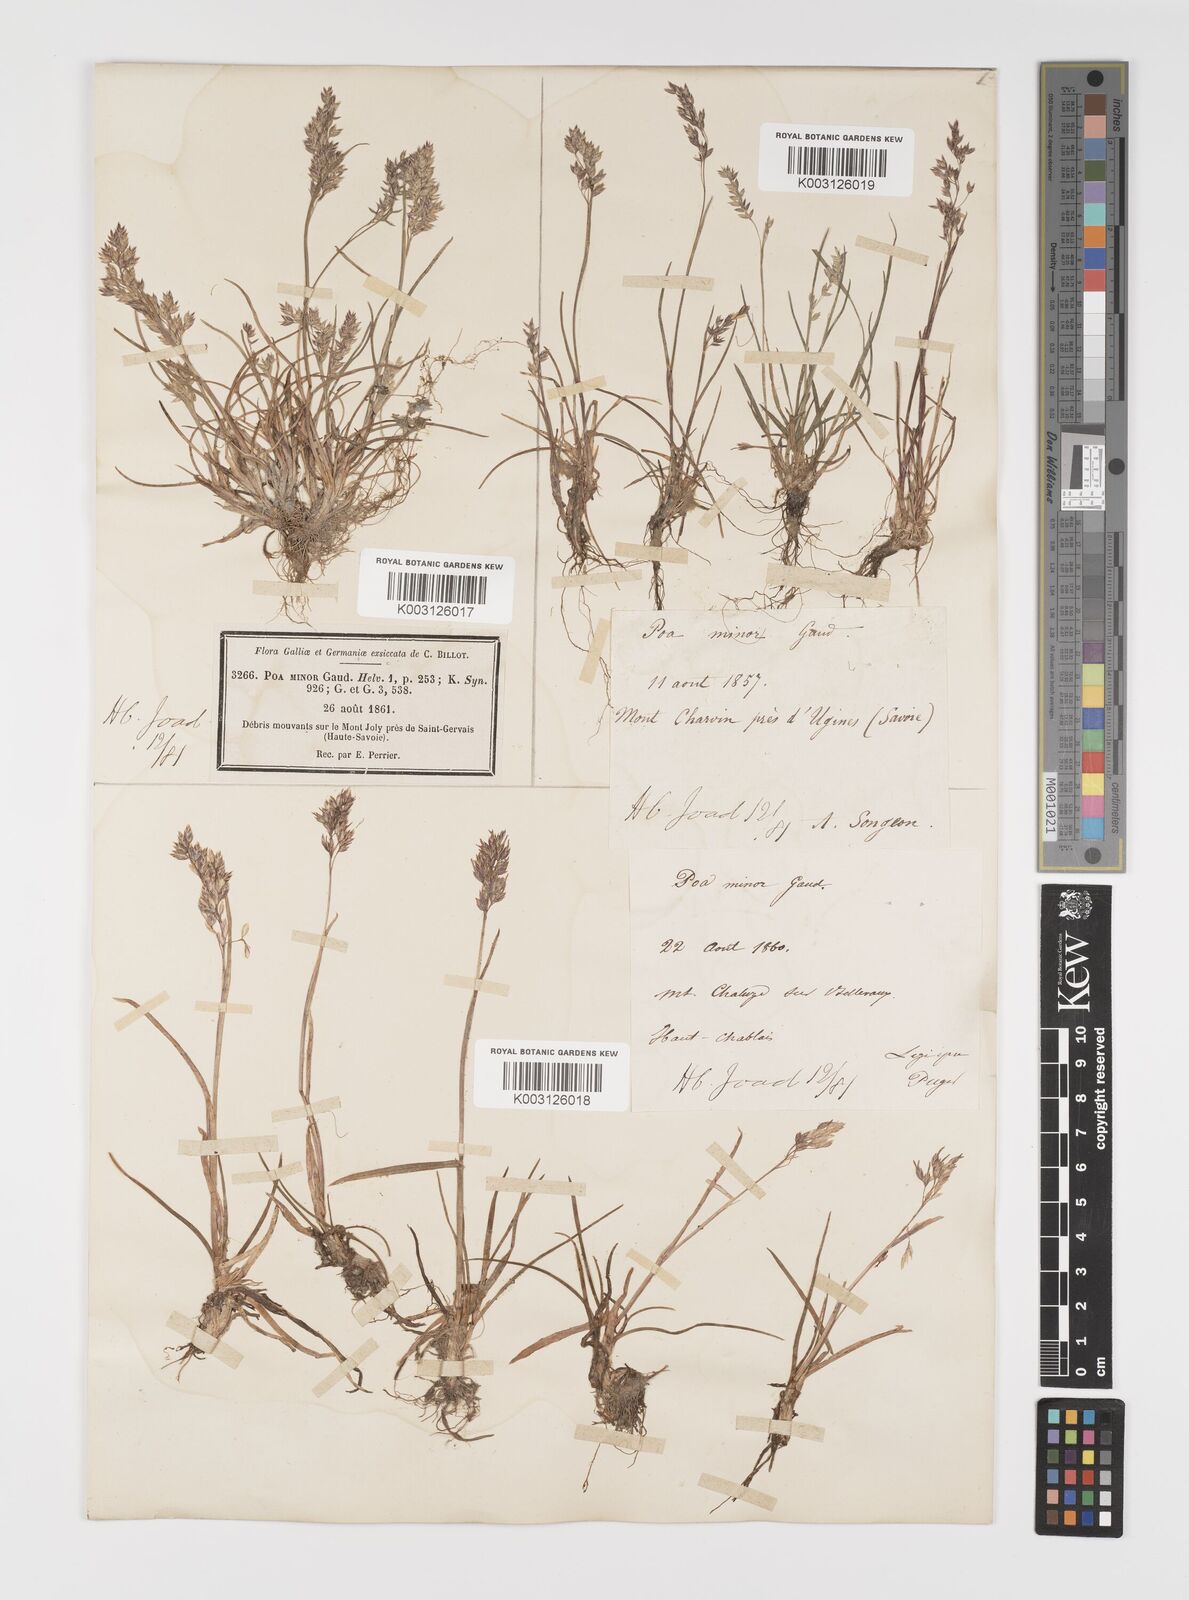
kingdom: Plantae
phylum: Tracheophyta
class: Liliopsida
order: Poales
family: Poaceae
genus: Poa
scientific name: Poa minor
